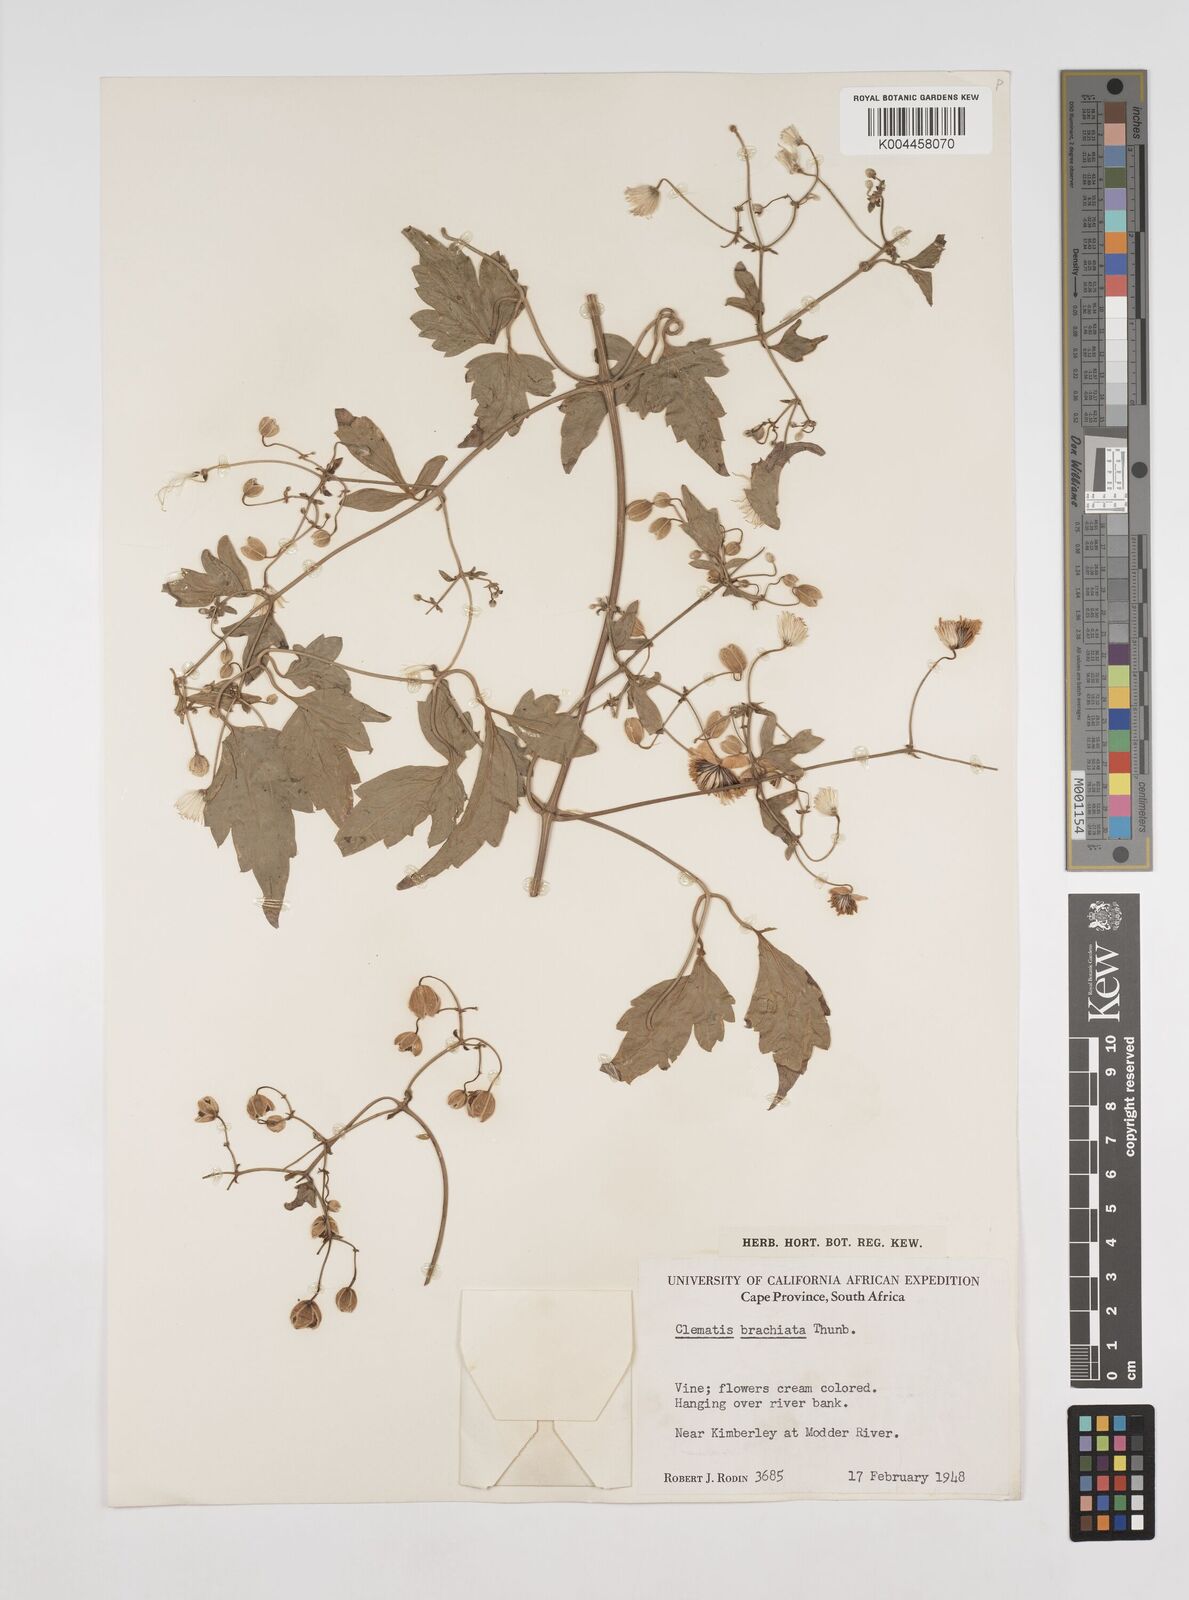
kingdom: Plantae
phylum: Tracheophyta
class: Magnoliopsida
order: Ranunculales
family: Ranunculaceae
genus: Clematis
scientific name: Clematis brachiata
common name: Traveler's-joy
